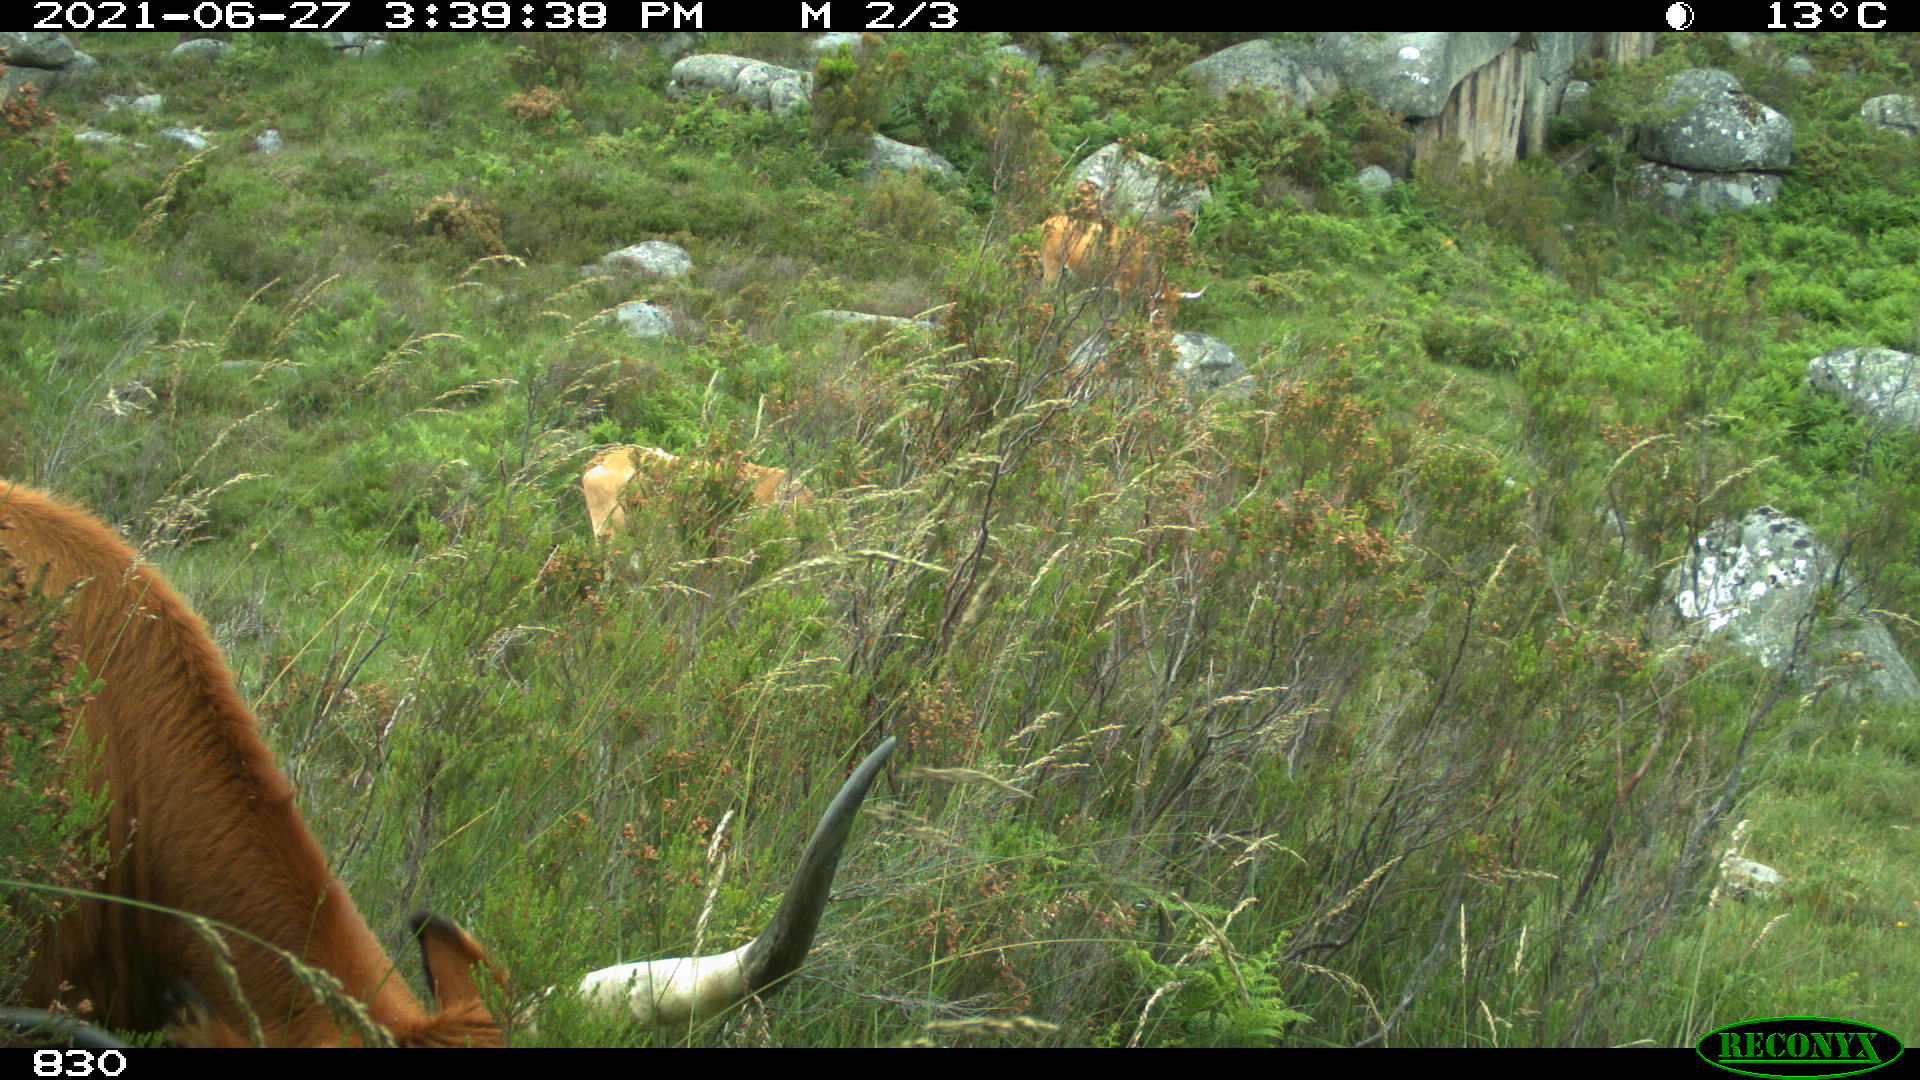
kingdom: Animalia
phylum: Chordata
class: Mammalia
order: Artiodactyla
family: Bovidae
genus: Bos
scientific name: Bos taurus
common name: Domesticated cattle
